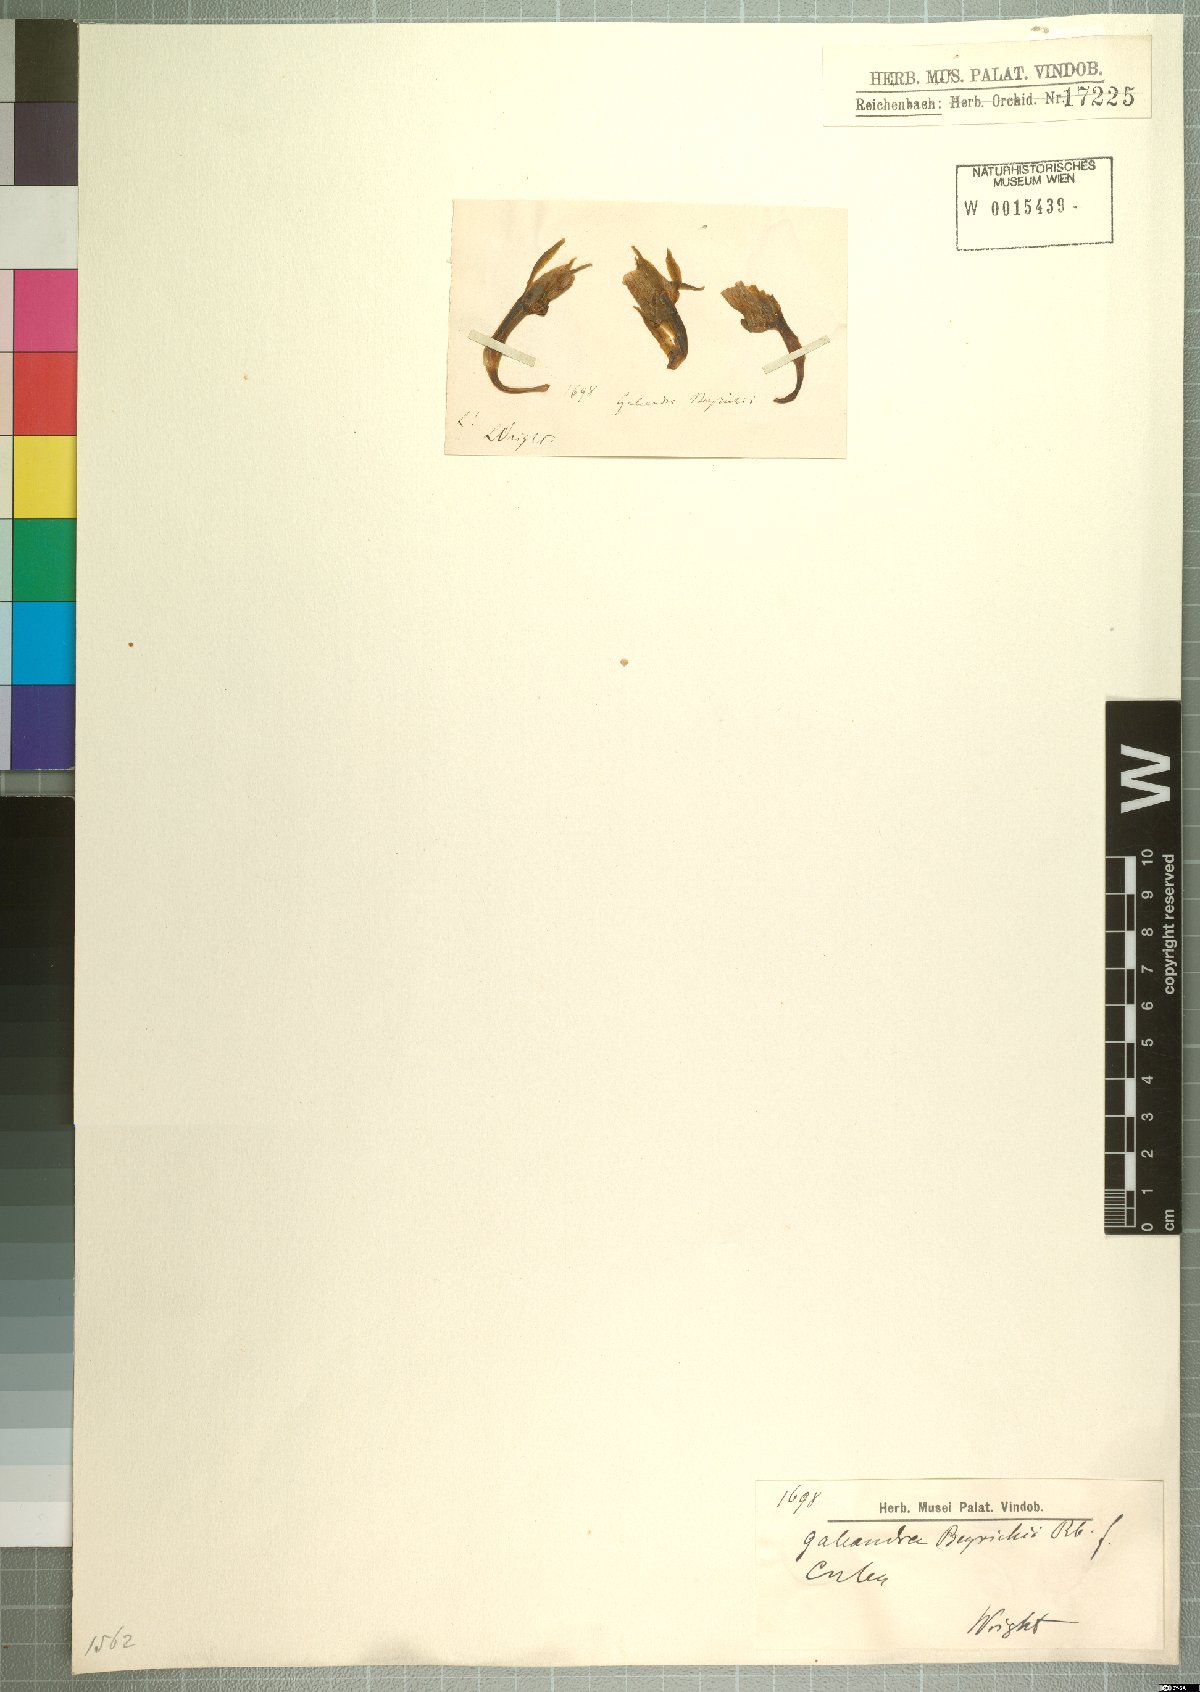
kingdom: Plantae
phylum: Tracheophyta
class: Liliopsida
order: Asparagales
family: Orchidaceae
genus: Galeandra
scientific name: Galeandra beyrichii
